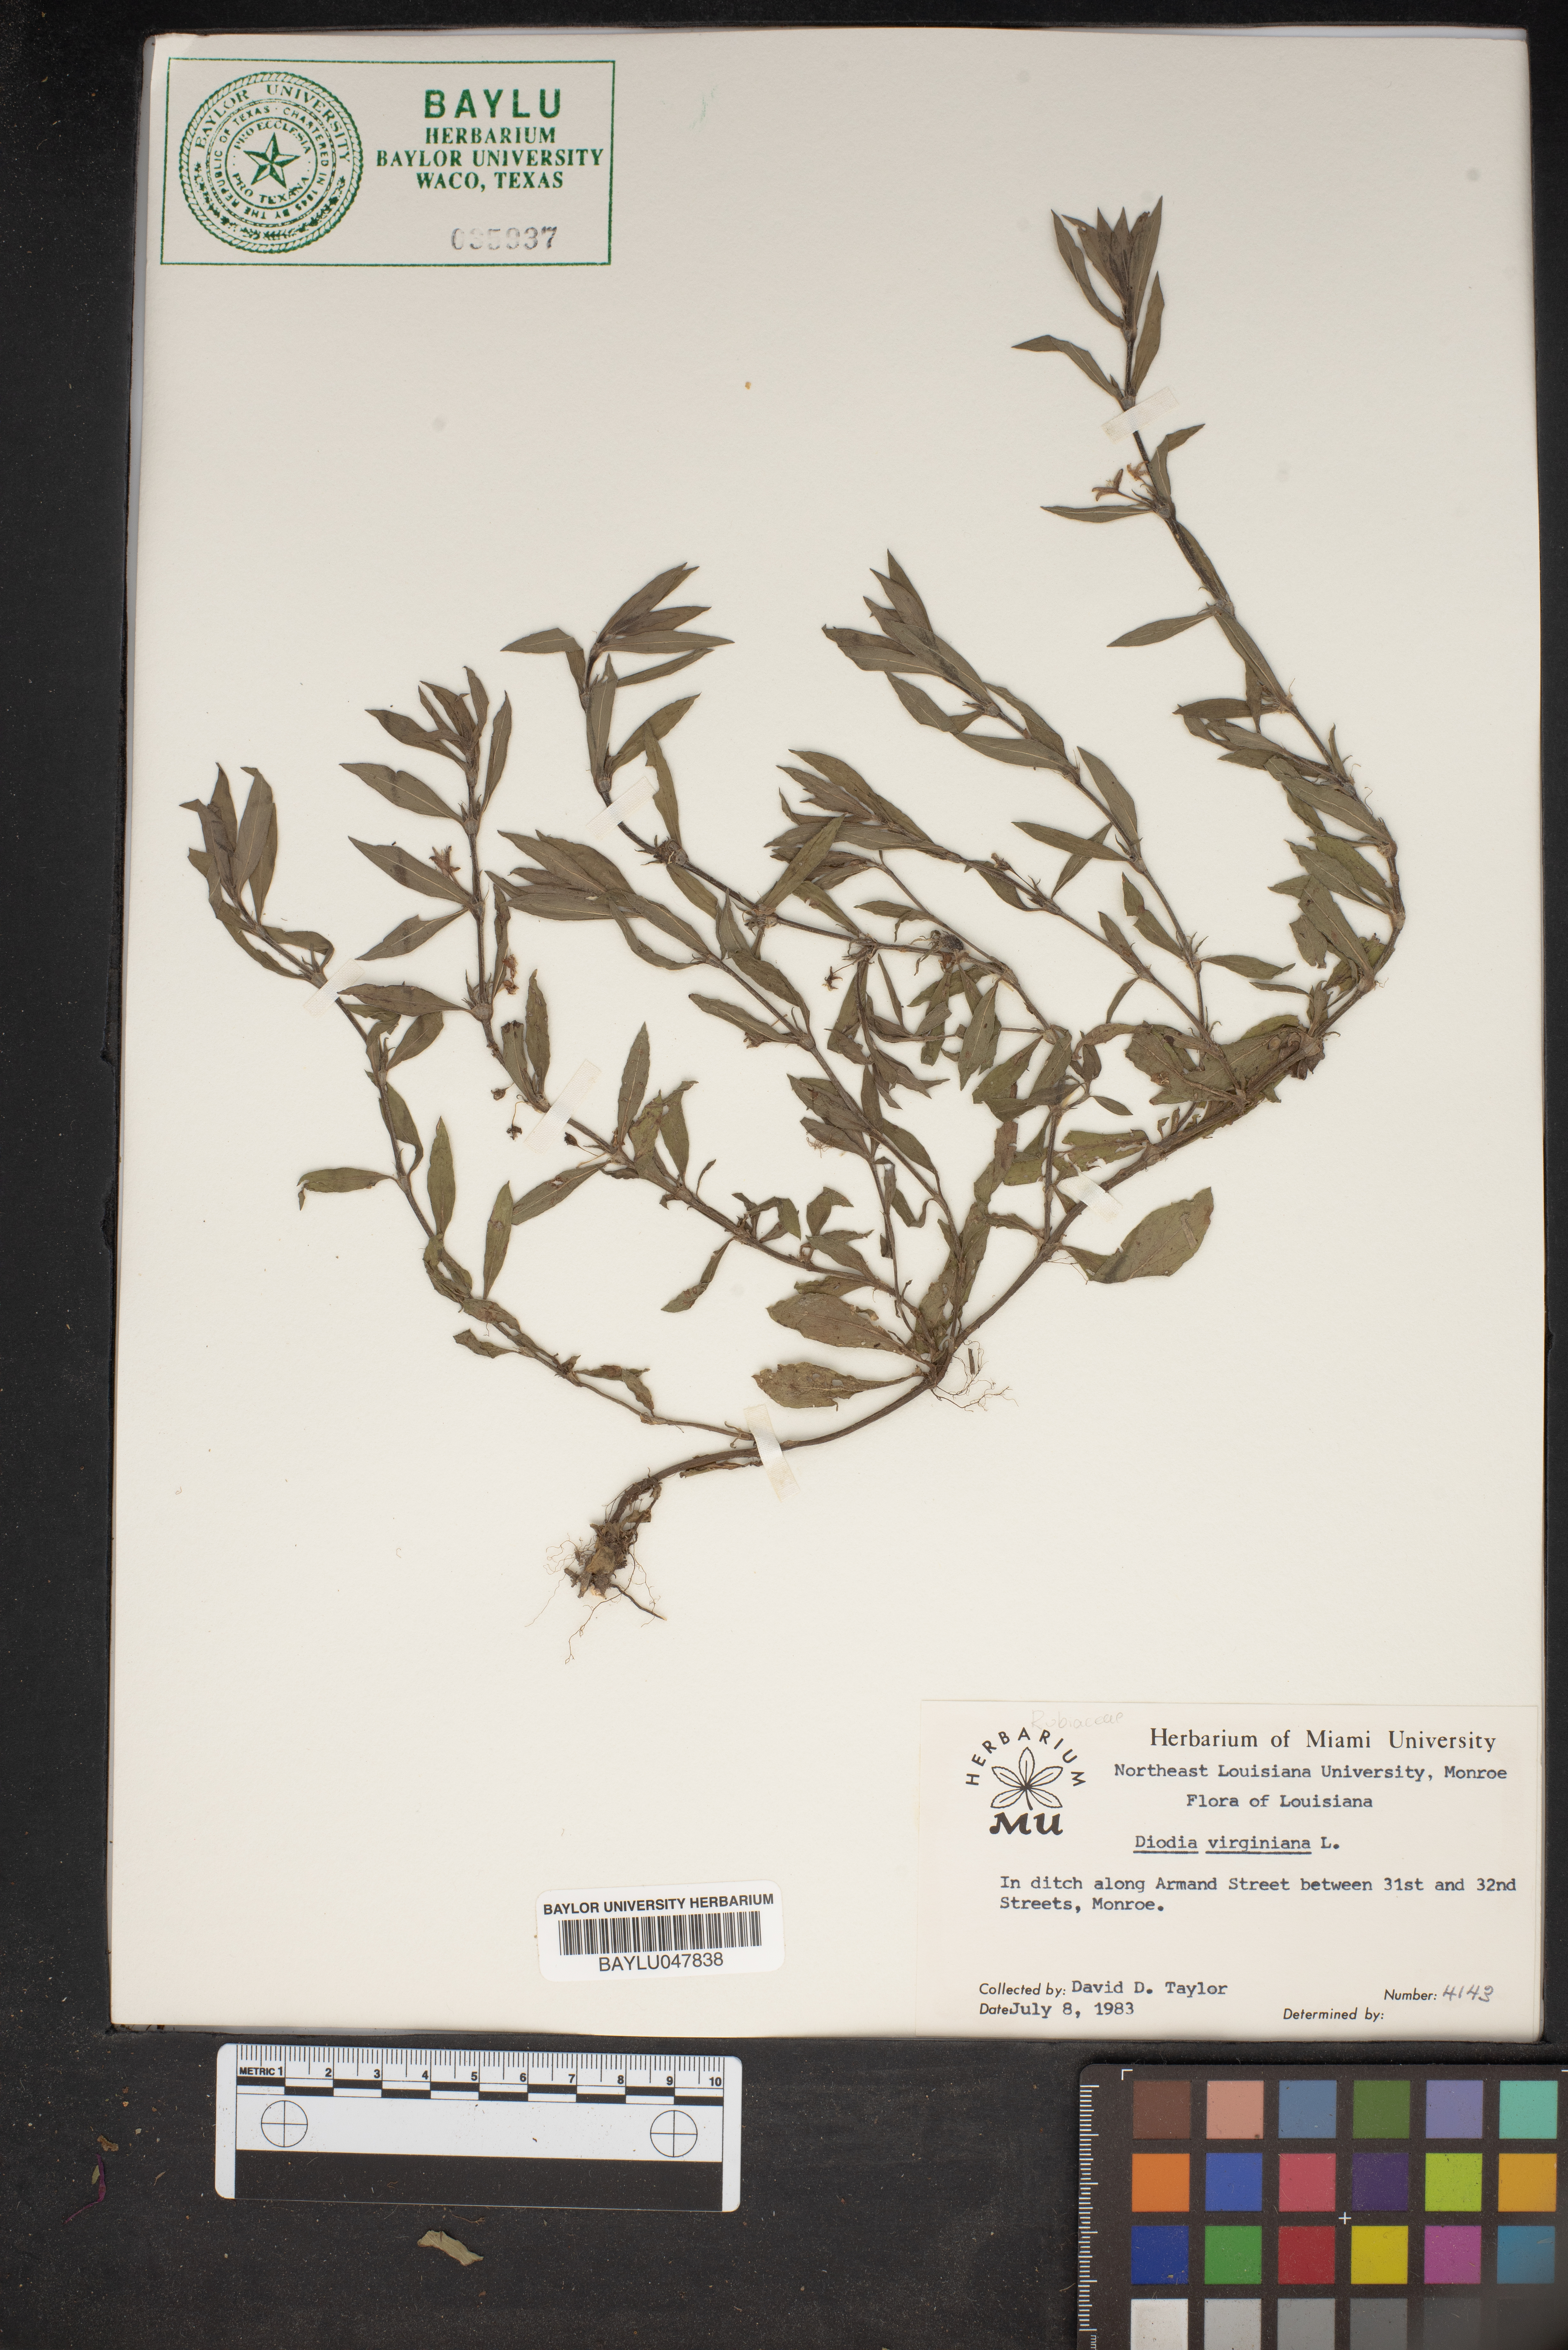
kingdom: Plantae
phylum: Tracheophyta
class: Magnoliopsida
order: Gentianales
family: Rubiaceae
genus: Diodia
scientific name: Diodia virginiana
